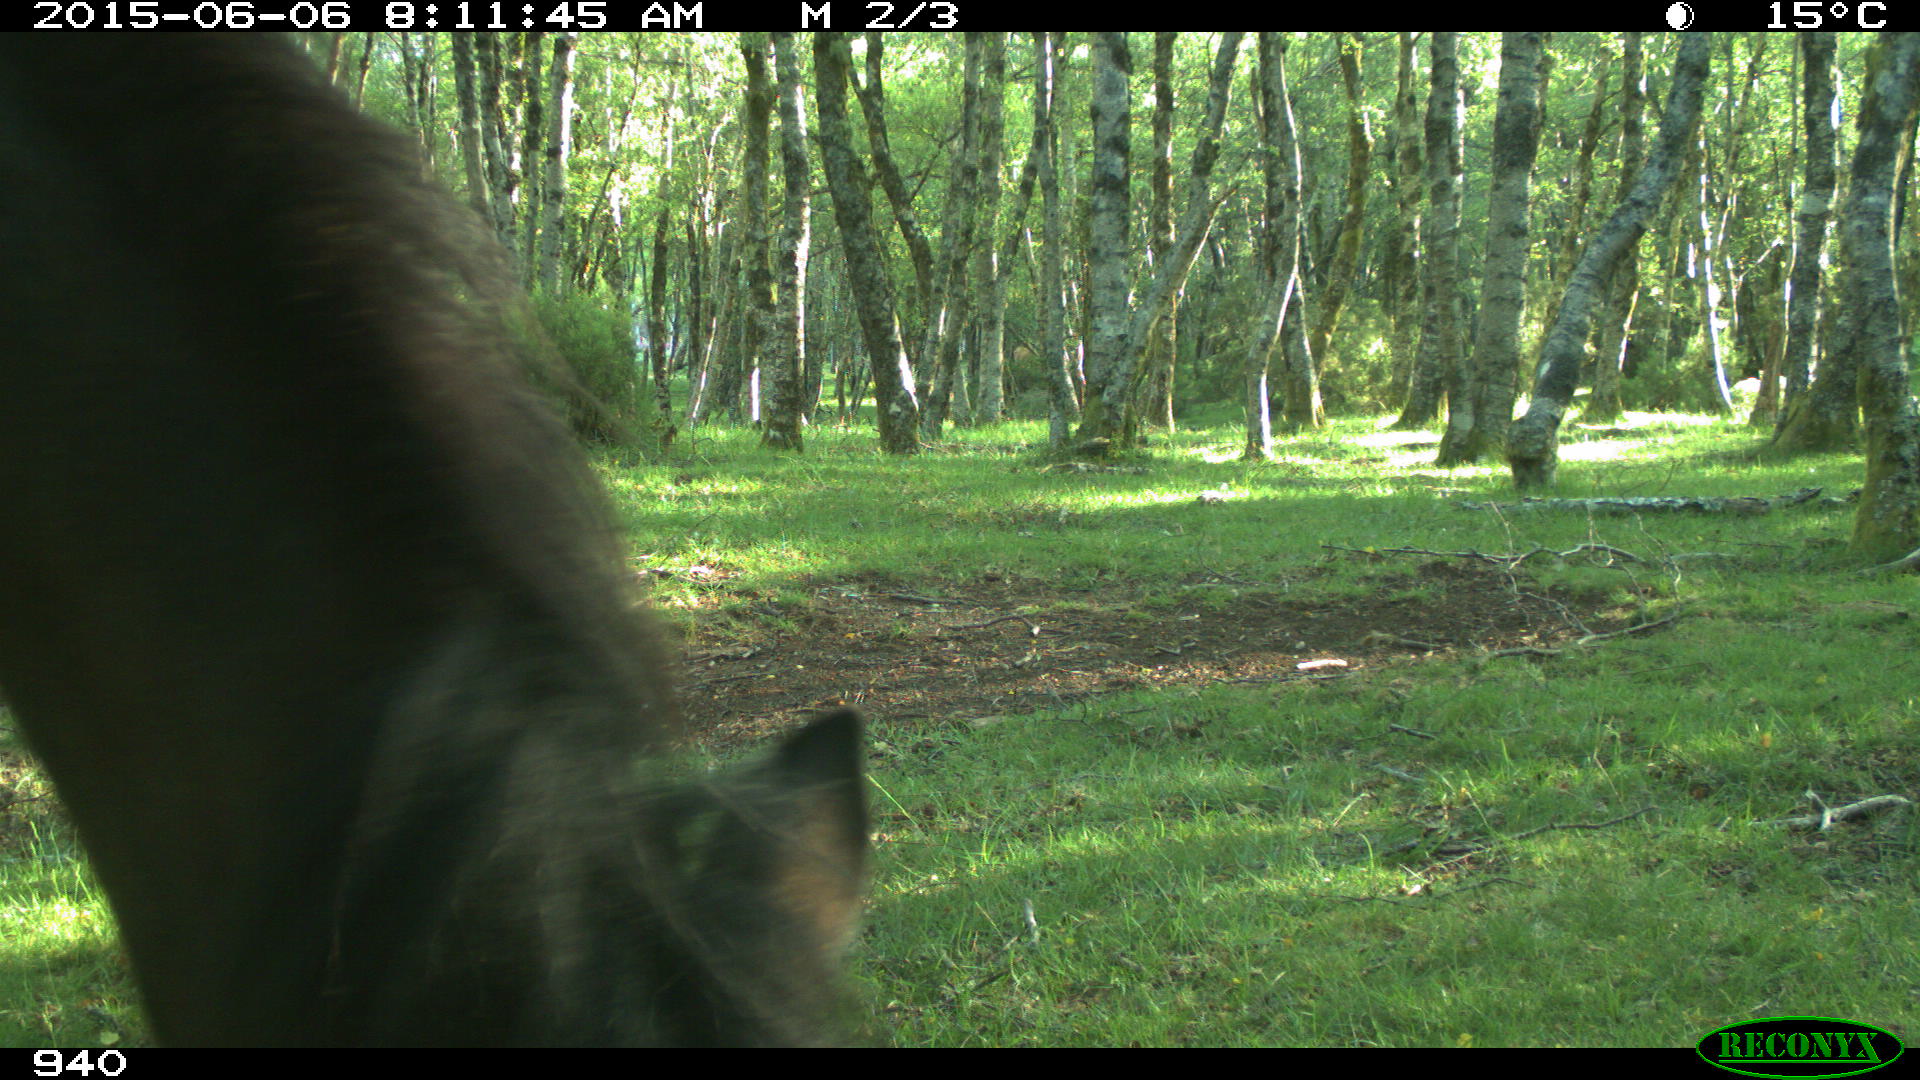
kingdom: Animalia
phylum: Chordata
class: Mammalia
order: Perissodactyla
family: Equidae
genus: Equus
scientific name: Equus caballus
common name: Horse
